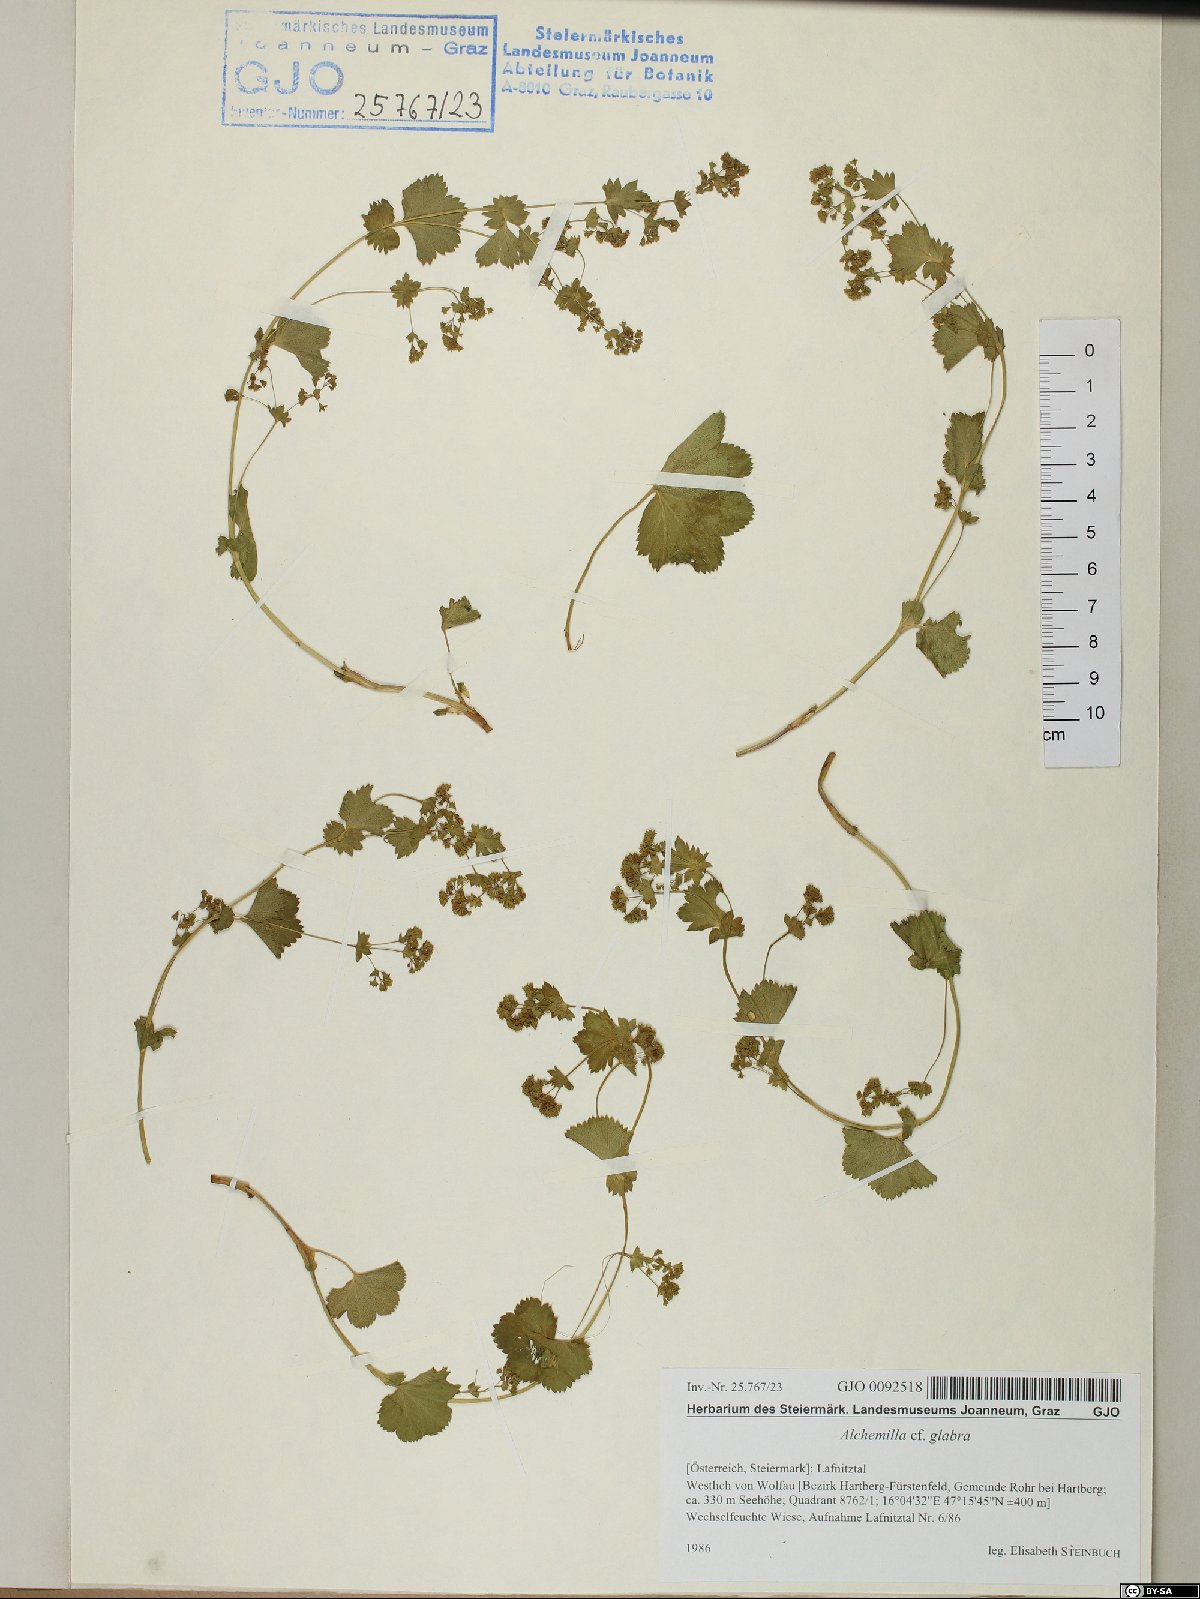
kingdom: Plantae
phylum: Tracheophyta
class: Magnoliopsida
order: Rosales
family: Rosaceae
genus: Alchemilla
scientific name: Alchemilla glabra
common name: Smooth lady's-mantle
